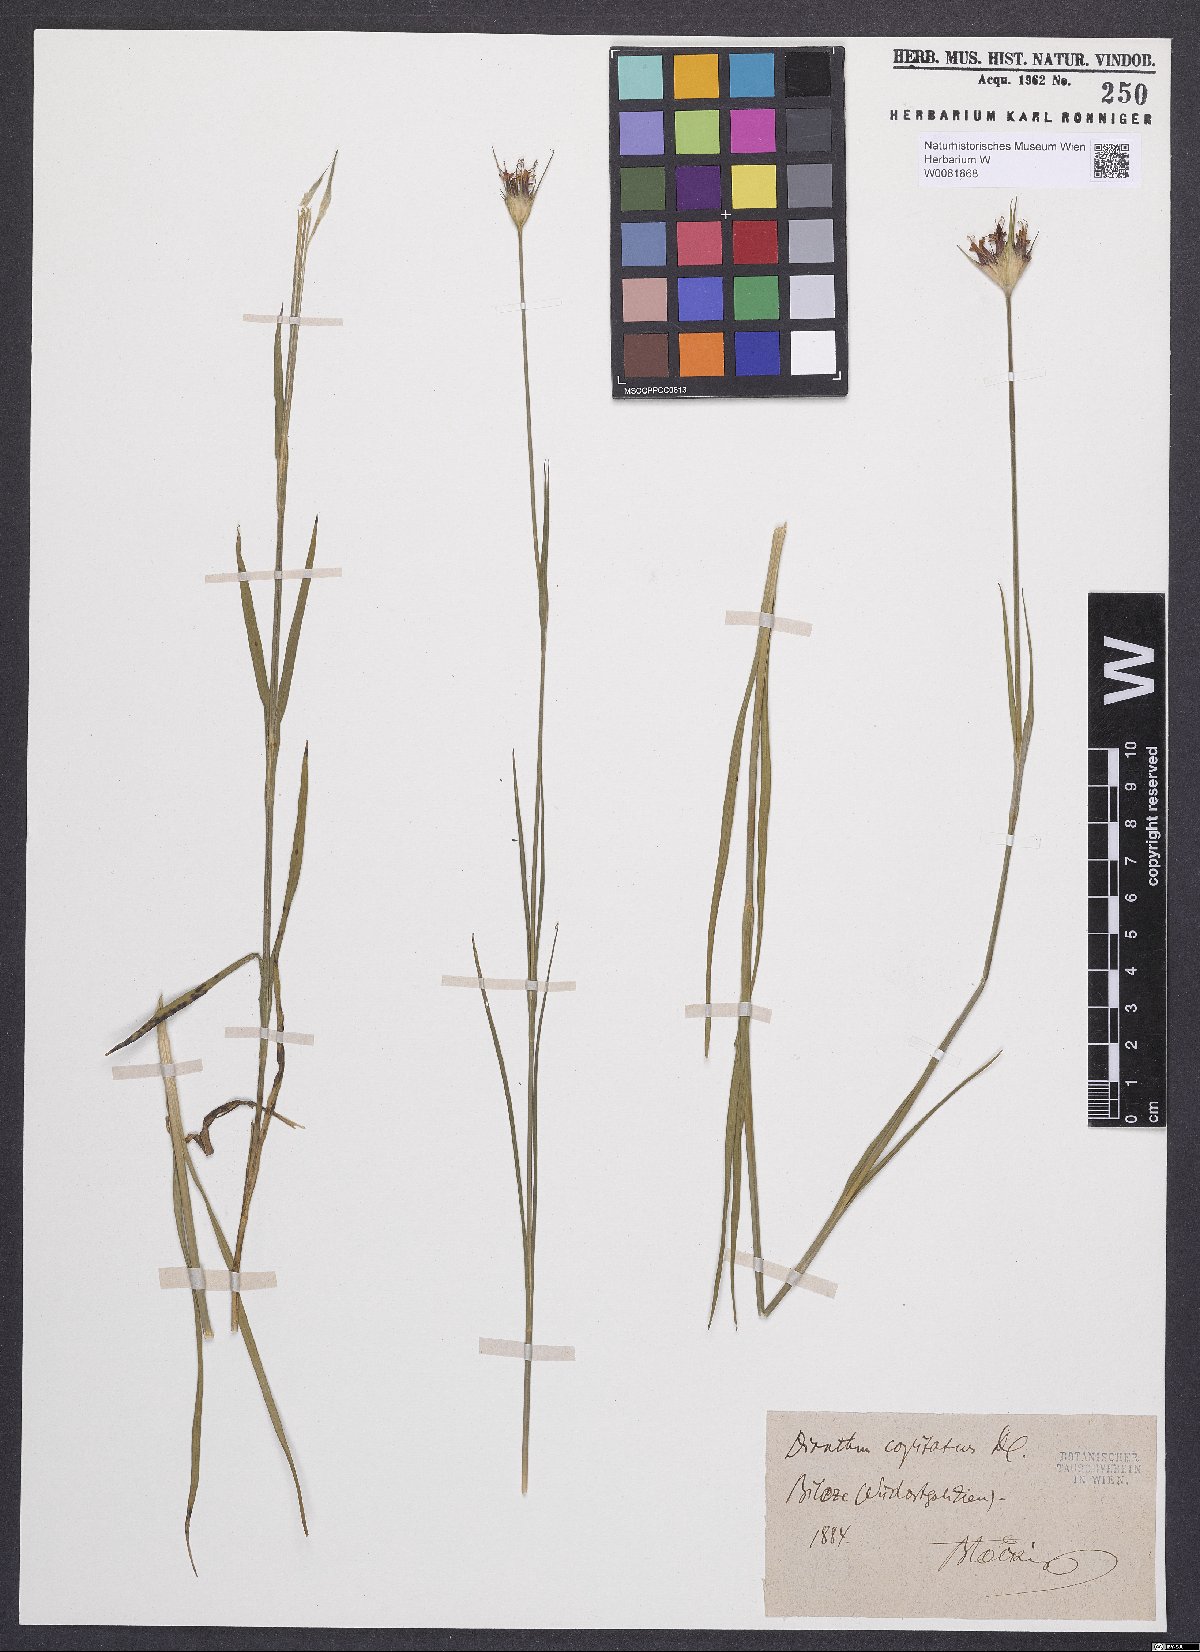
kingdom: Plantae
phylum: Tracheophyta
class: Magnoliopsida
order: Caryophyllales
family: Caryophyllaceae
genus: Dianthus
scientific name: Dianthus capitatus
